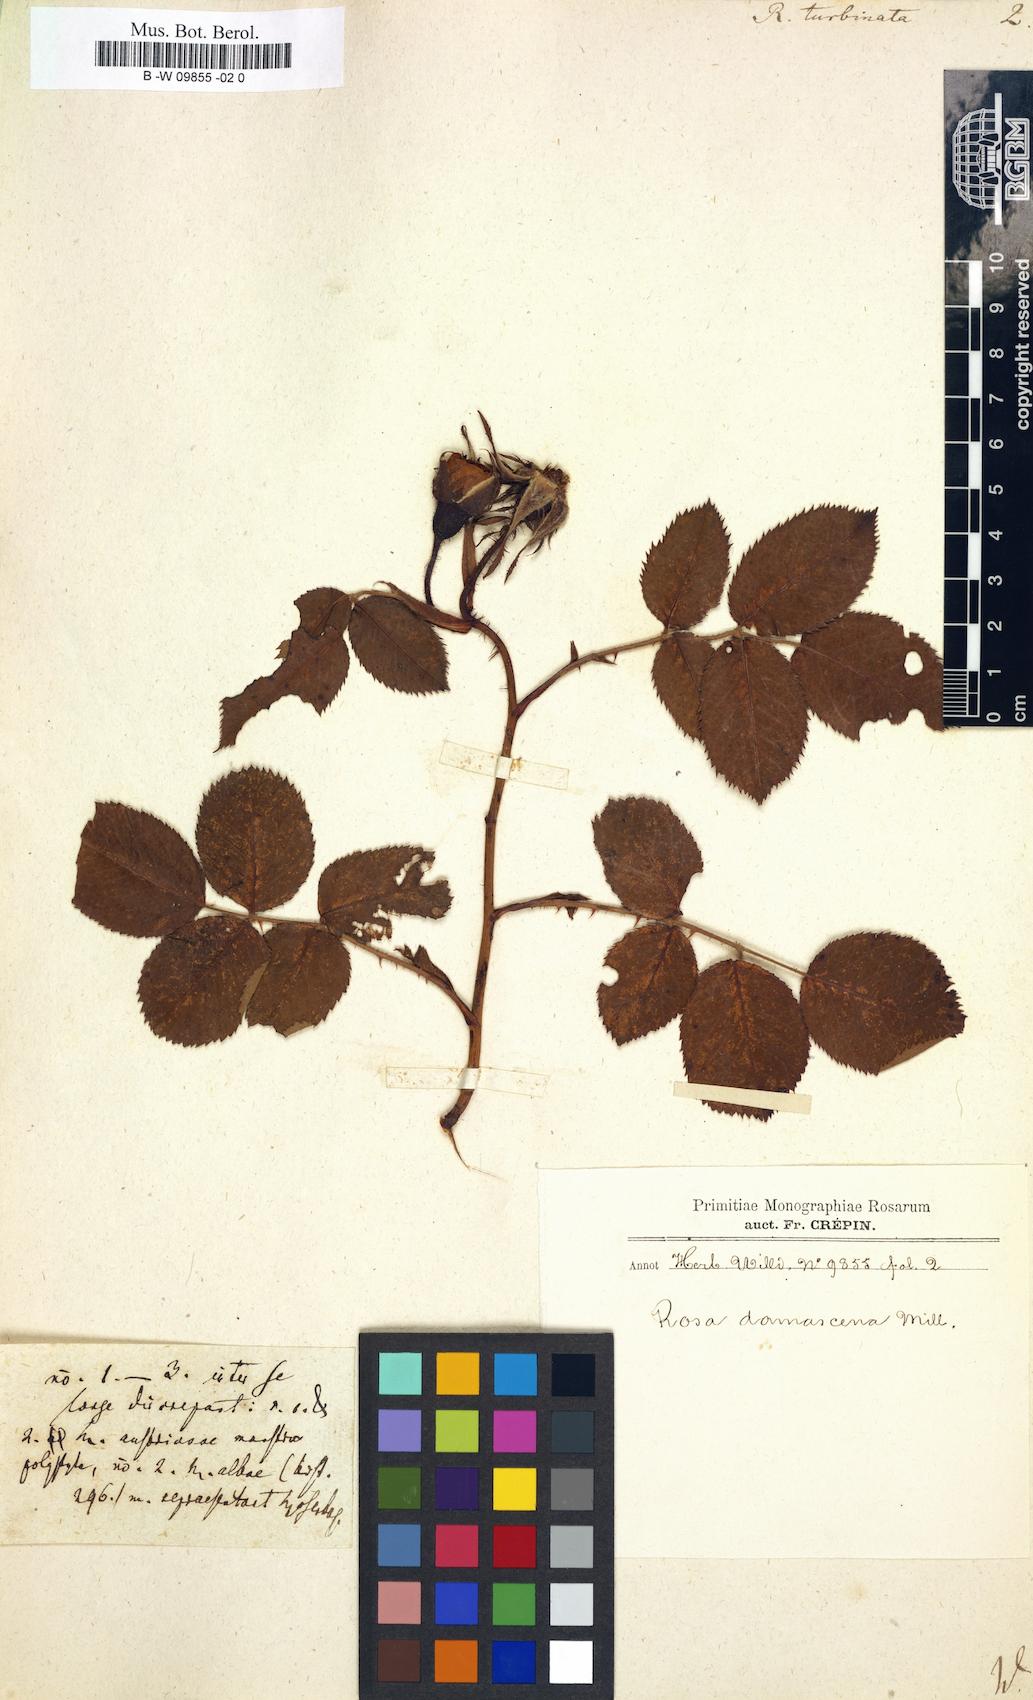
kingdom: Plantae
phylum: Tracheophyta
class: Magnoliopsida
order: Rosales
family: Rosaceae
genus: Rosa
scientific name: Rosa
